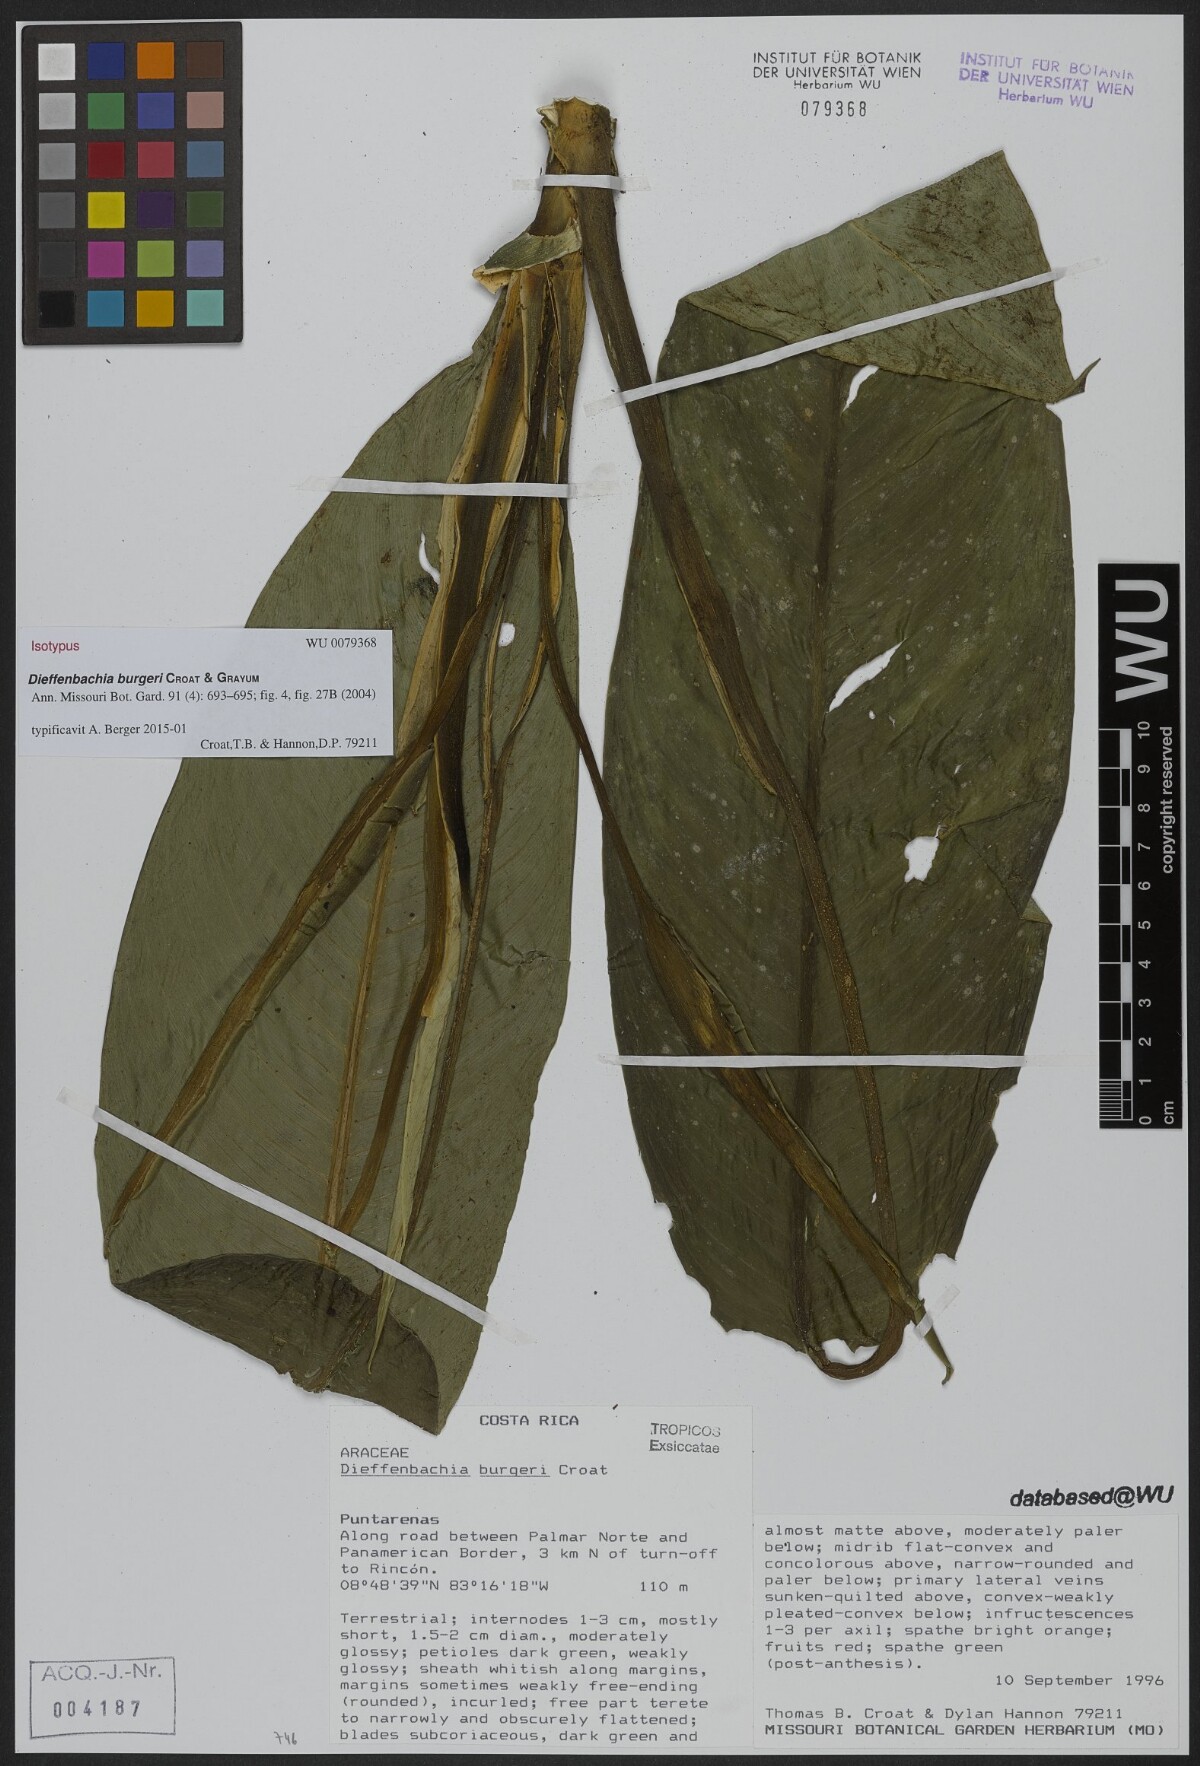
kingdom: Plantae
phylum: Tracheophyta
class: Liliopsida
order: Alismatales
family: Araceae
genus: Dieffenbachia
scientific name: Dieffenbachia burgeri
